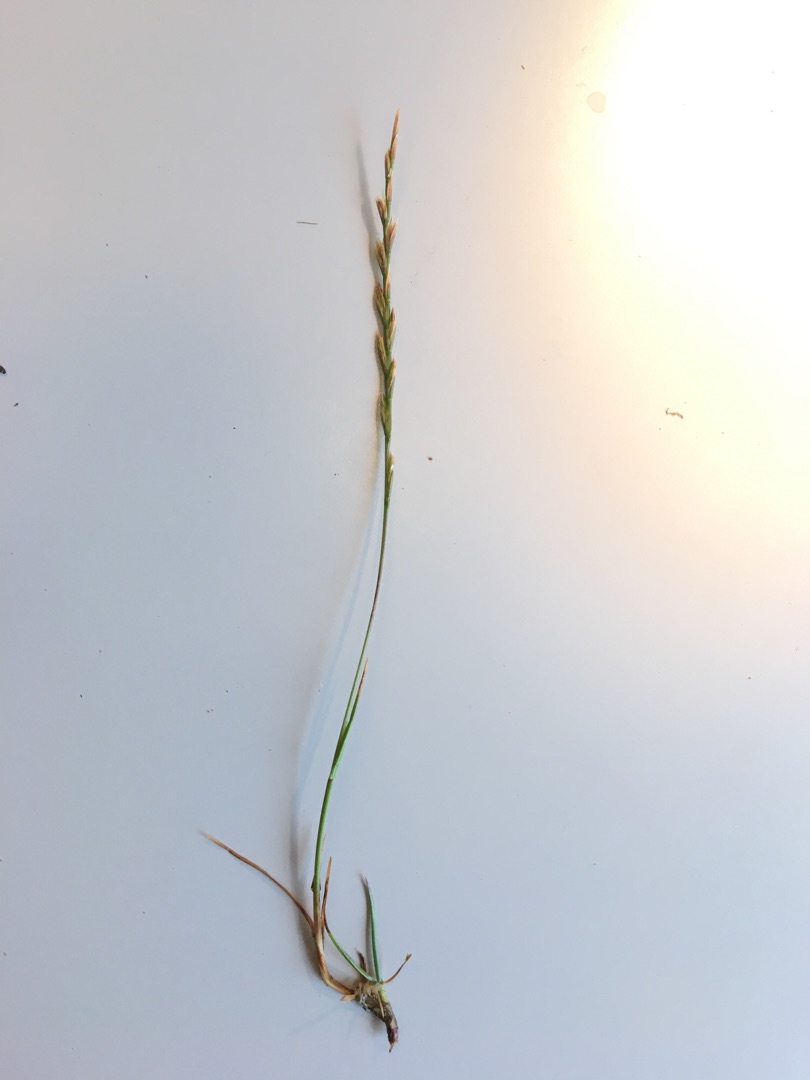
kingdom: Plantae
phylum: Tracheophyta
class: Liliopsida
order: Poales
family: Poaceae
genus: Lolium
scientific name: Lolium perenne
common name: Almindelig rajgræs
